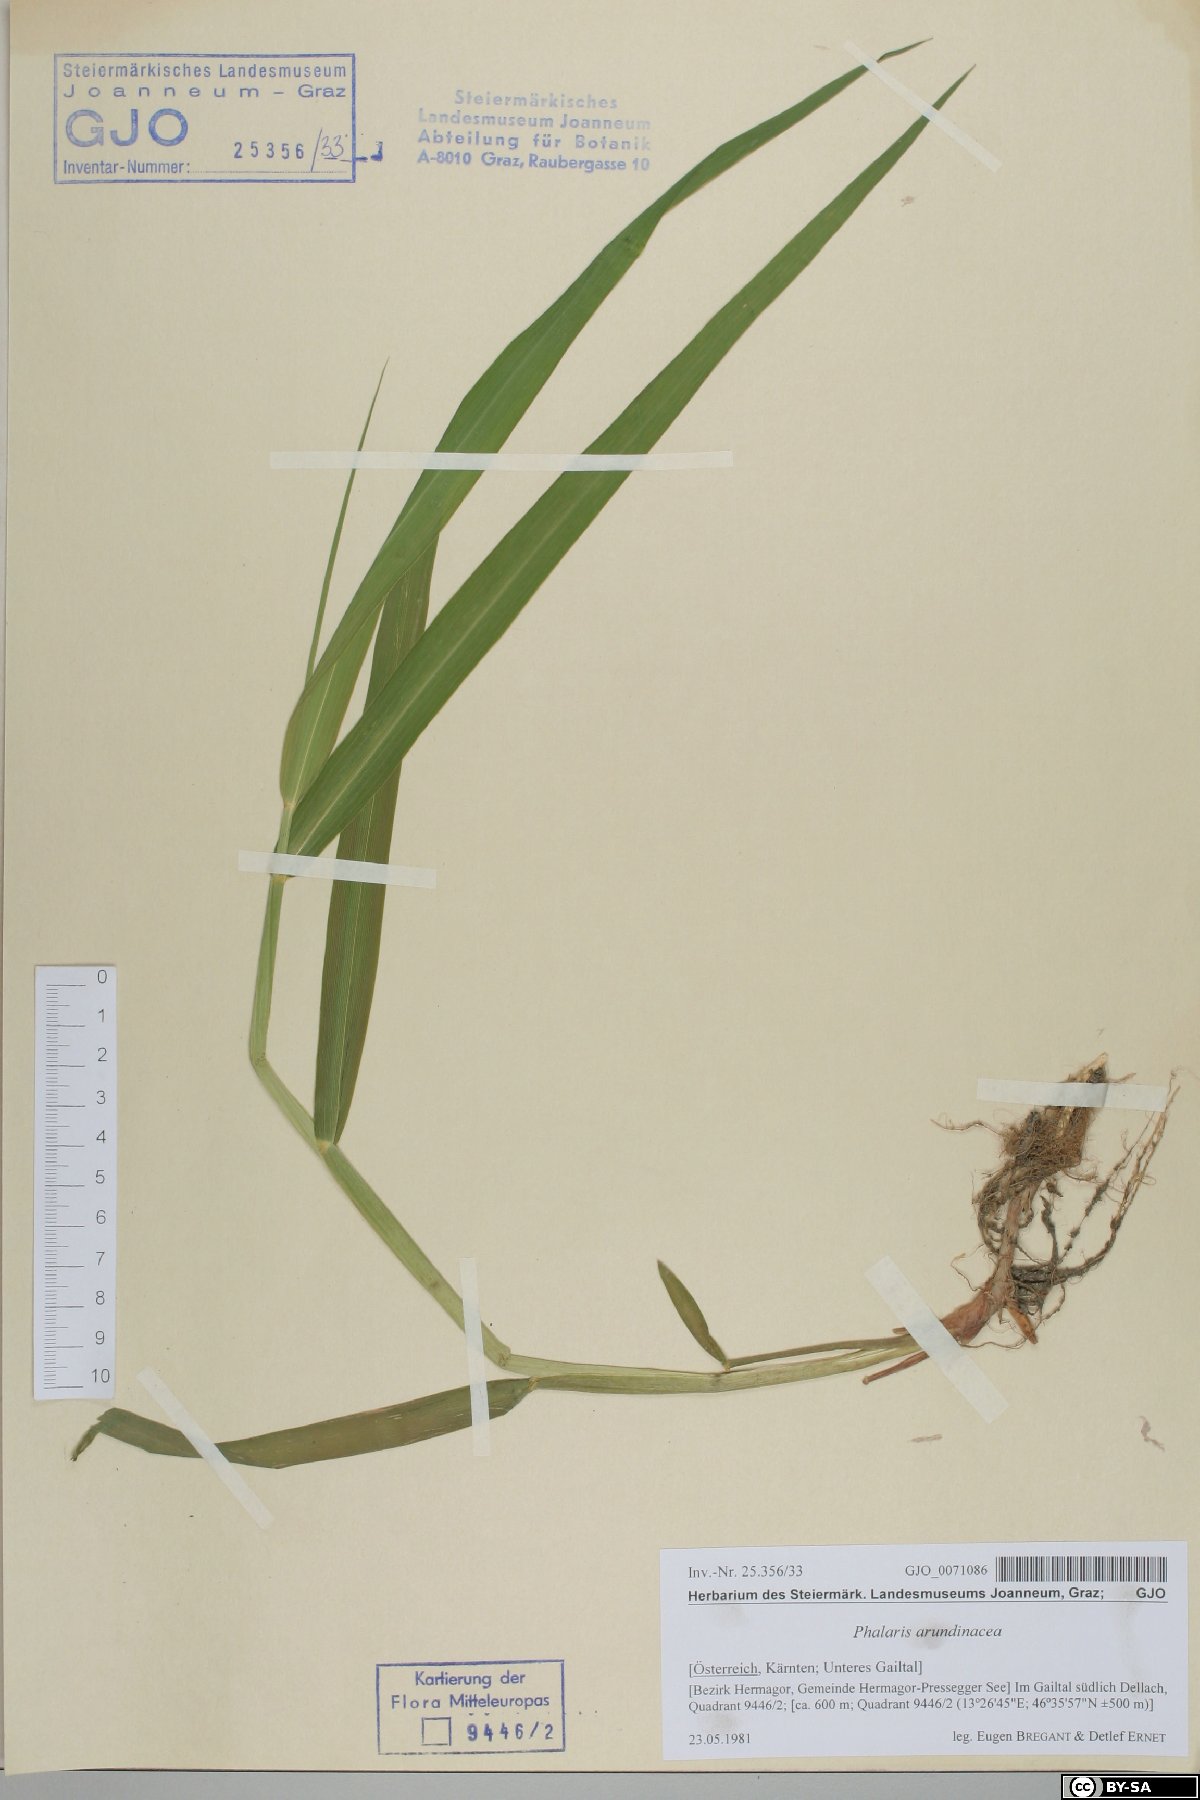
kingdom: Plantae
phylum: Tracheophyta
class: Liliopsida
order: Poales
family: Poaceae
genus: Phalaris
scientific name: Phalaris arundinacea
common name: Reed canary-grass
